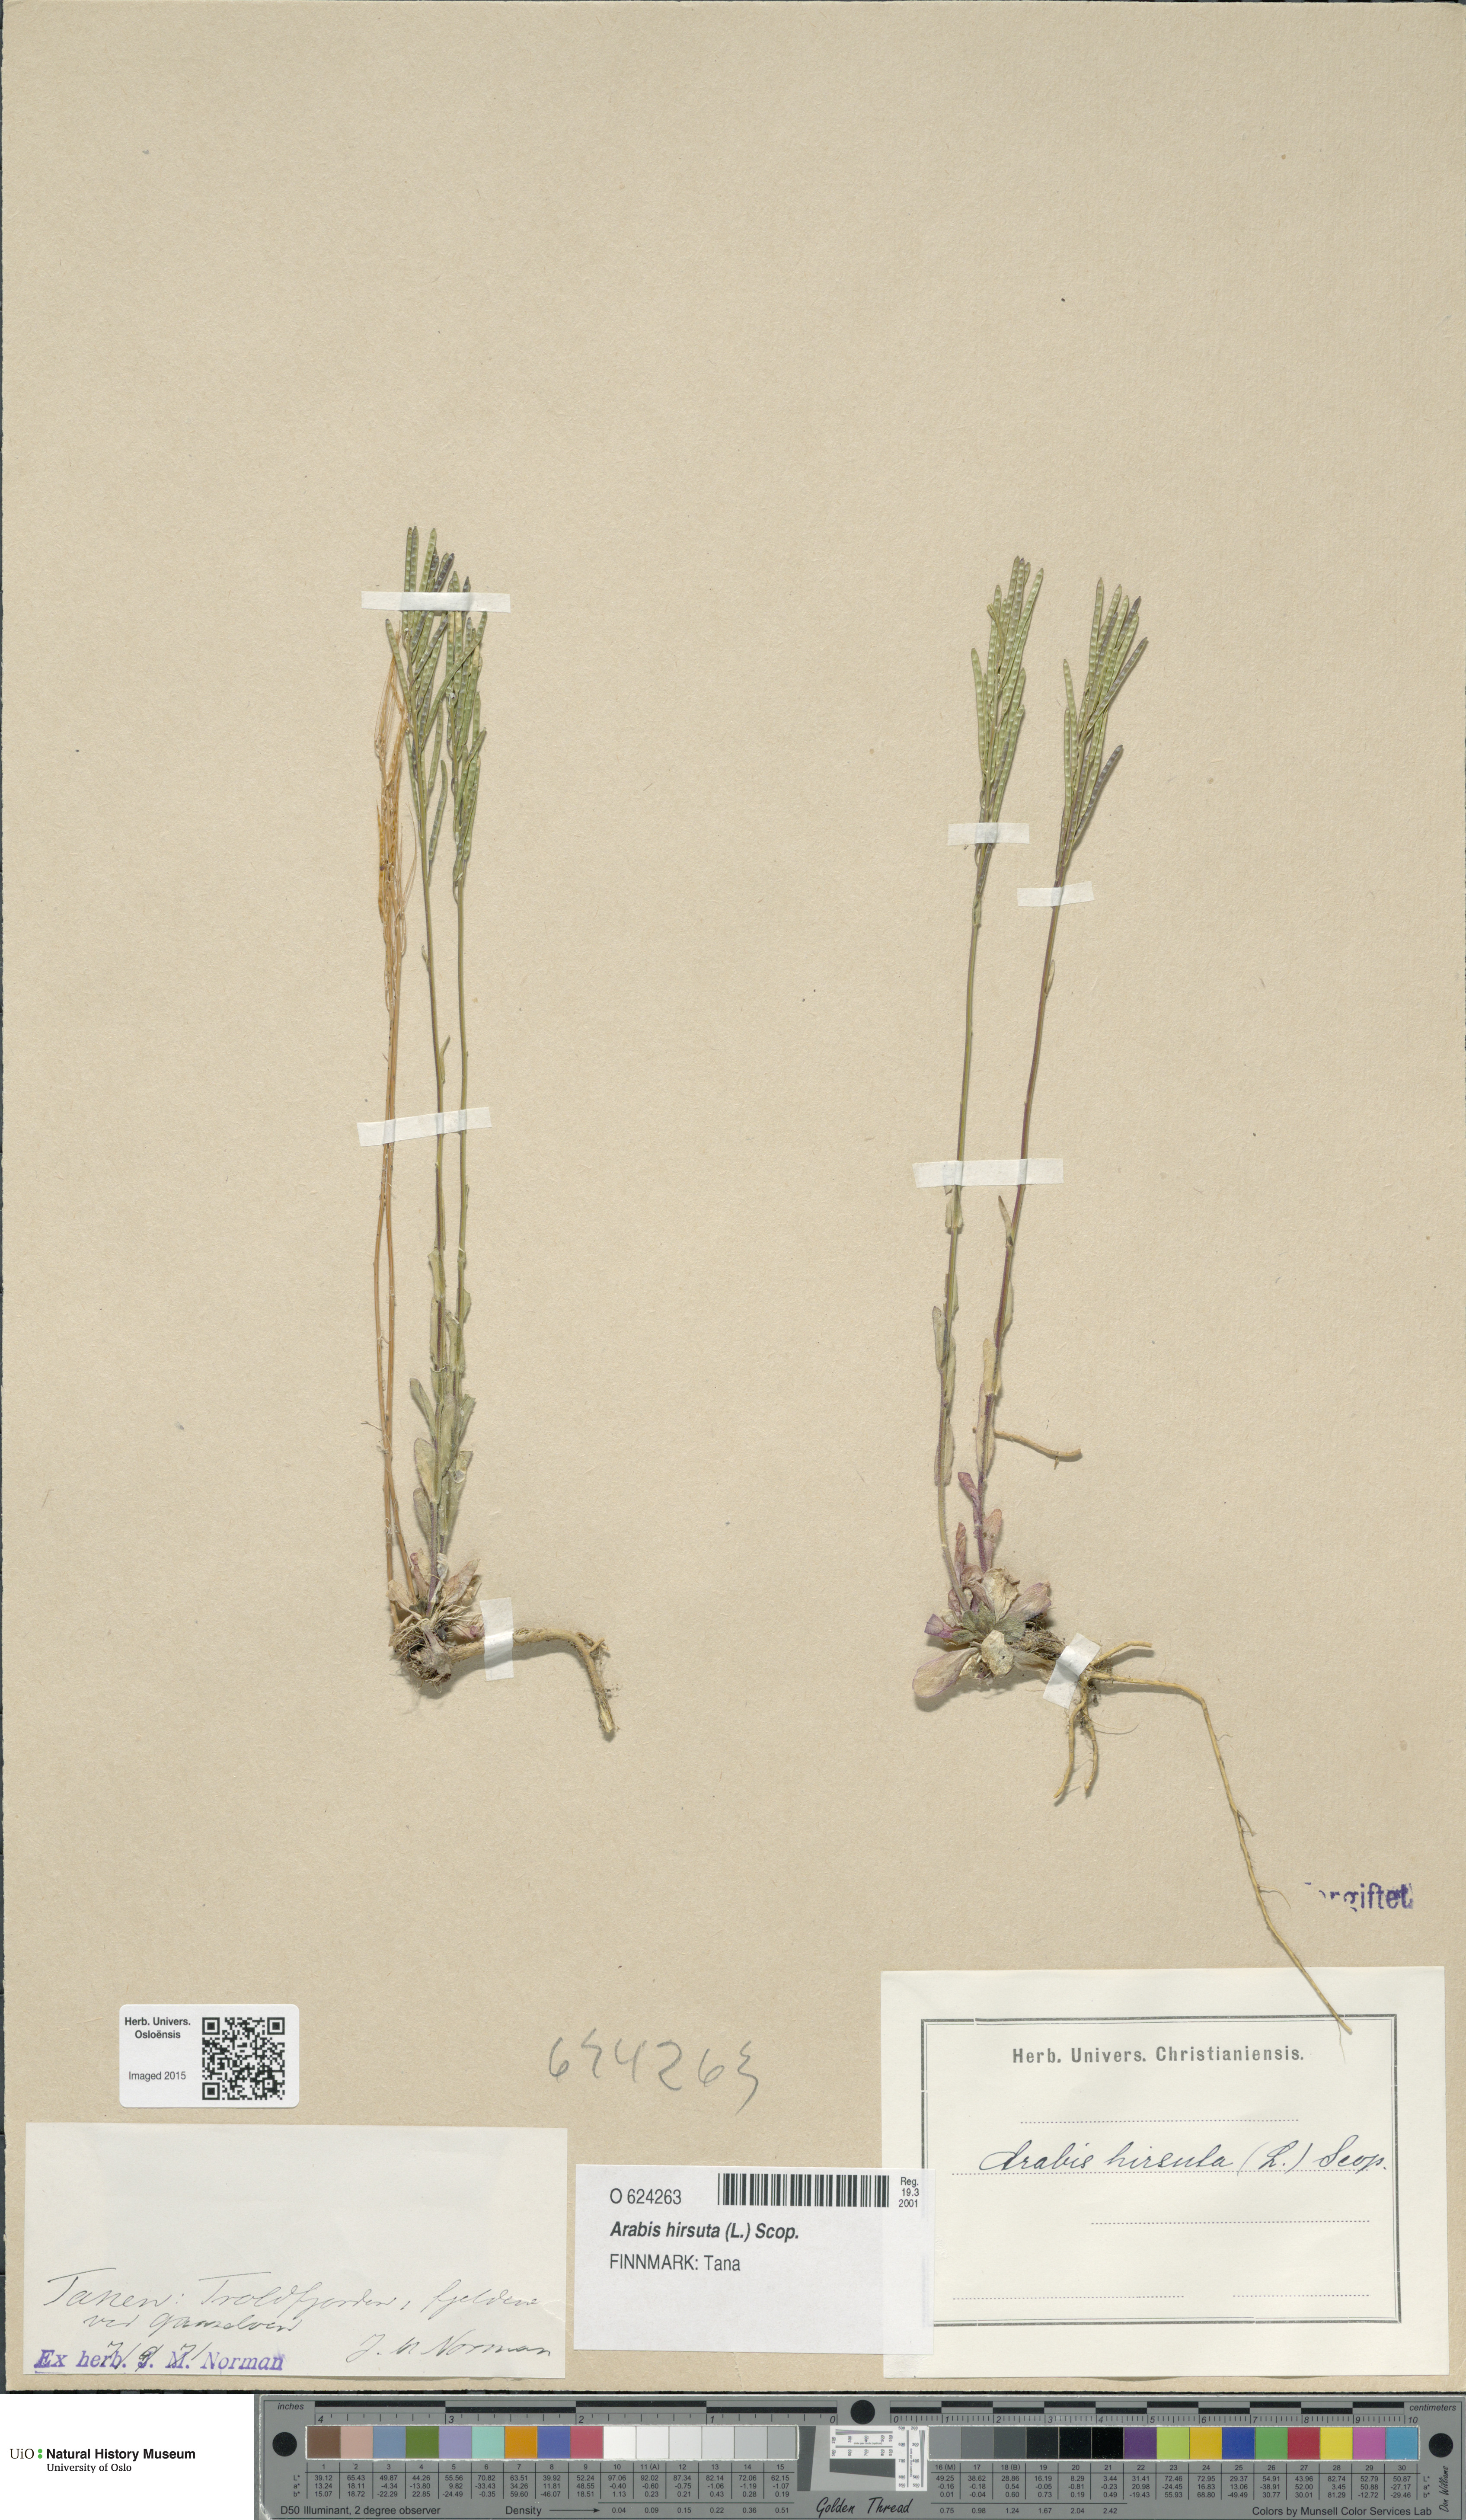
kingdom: Plantae
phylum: Tracheophyta
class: Magnoliopsida
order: Brassicales
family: Brassicaceae
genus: Arabis
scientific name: Arabis hirsuta
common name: Hairy rock-cress
